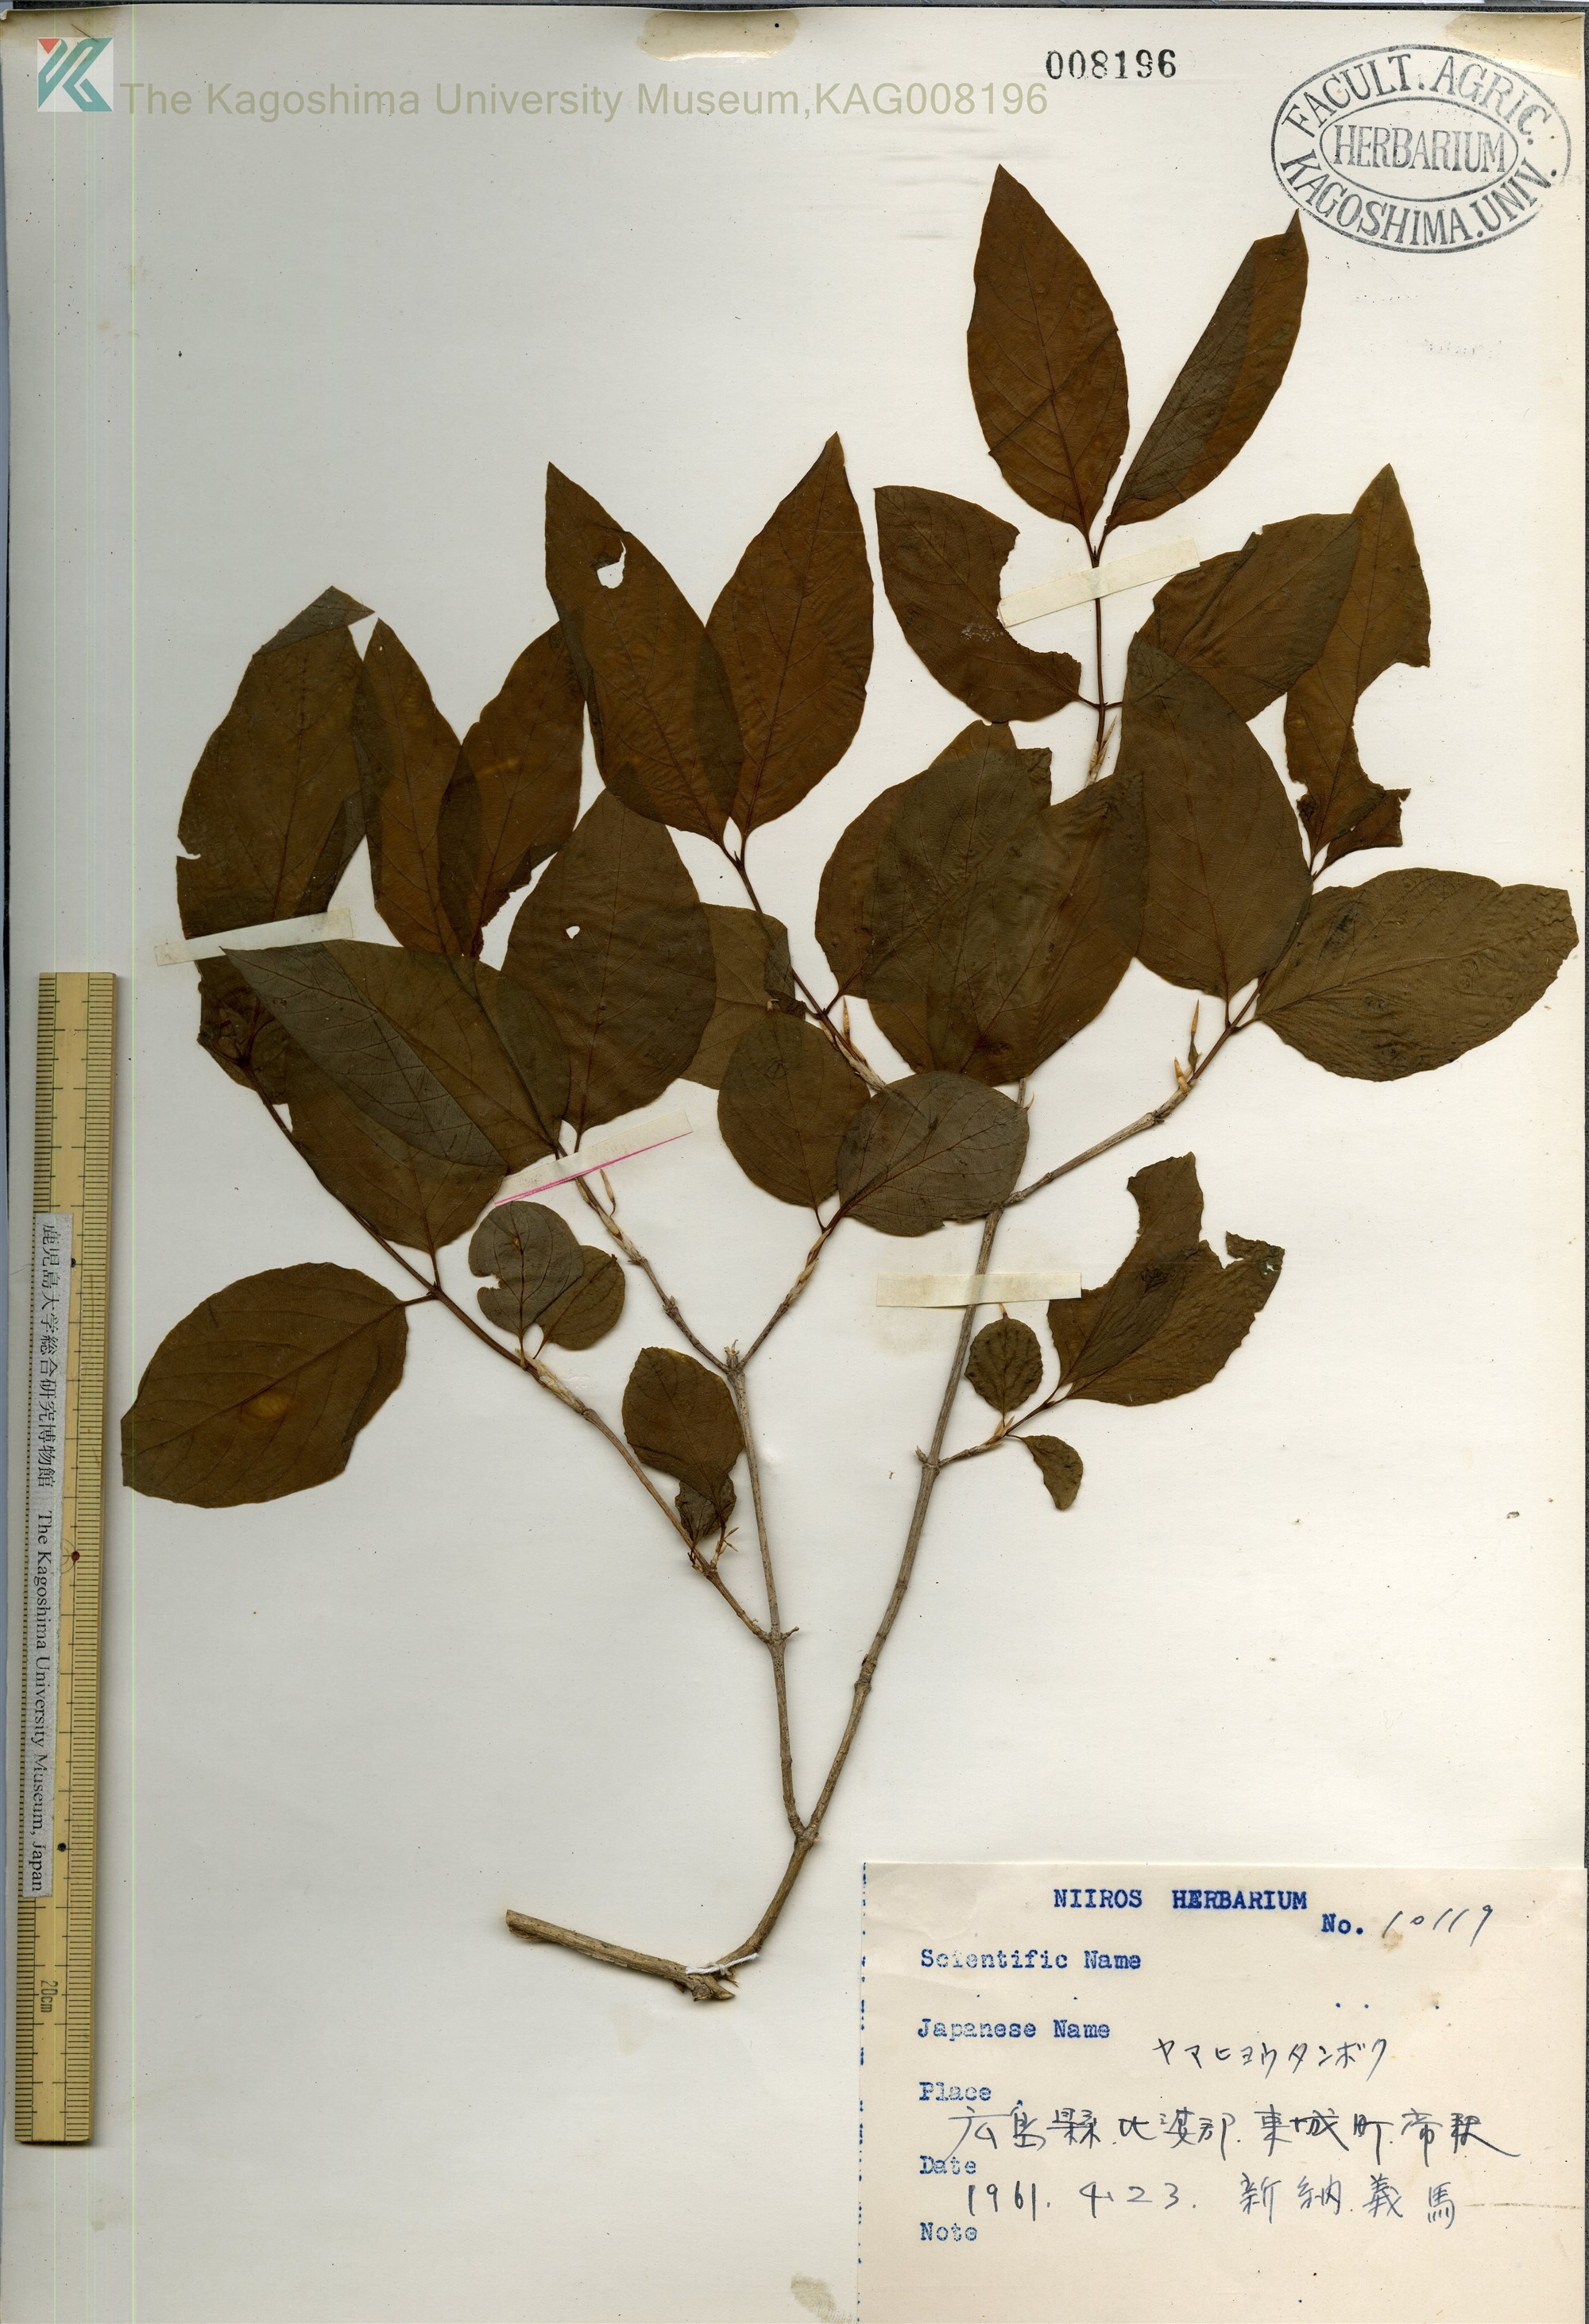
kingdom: Plantae
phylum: Tracheophyta
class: Magnoliopsida
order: Dipsacales
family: Caprifoliaceae
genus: Lonicera
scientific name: Lonicera subhispida
